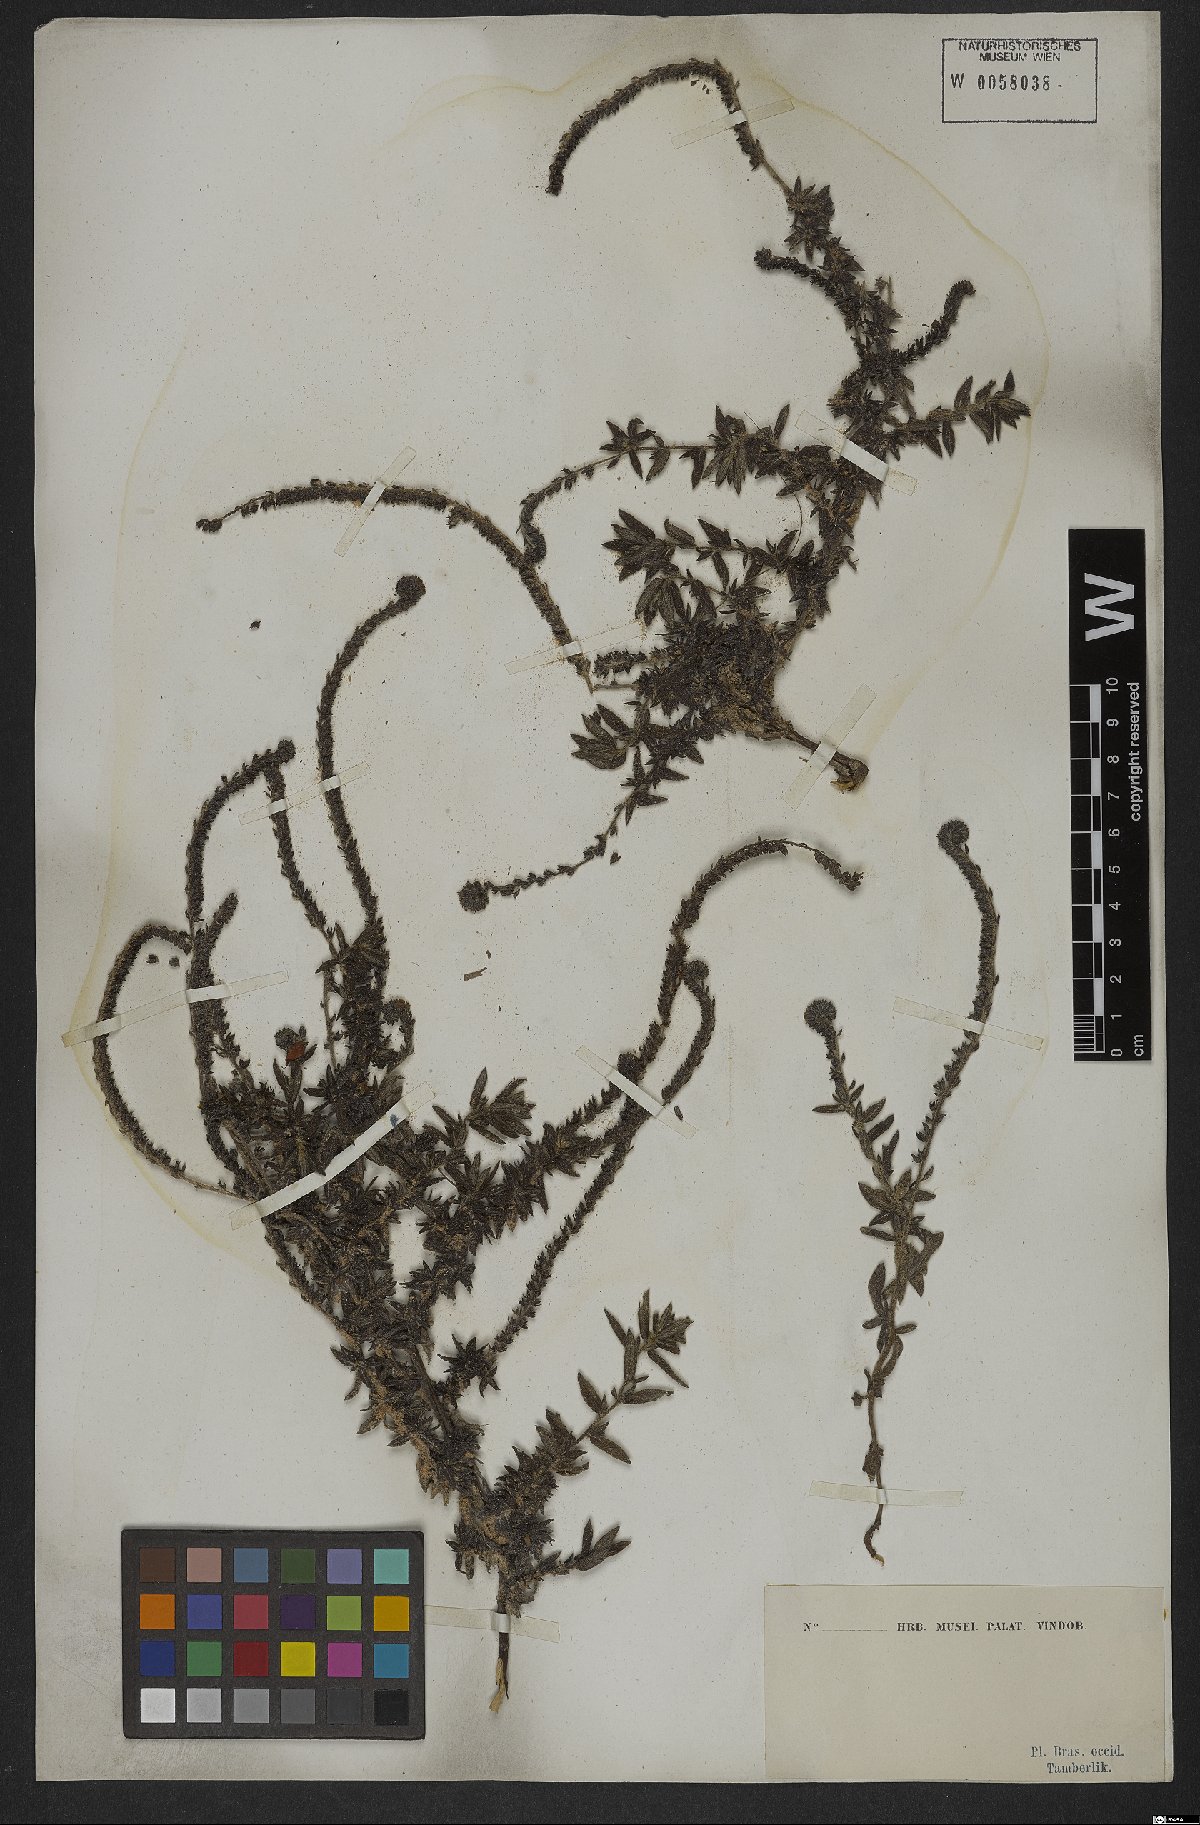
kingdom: Plantae
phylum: Tracheophyta
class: Magnoliopsida
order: Boraginales
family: Heliotropiaceae
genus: Euploca
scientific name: Euploca salicoides
